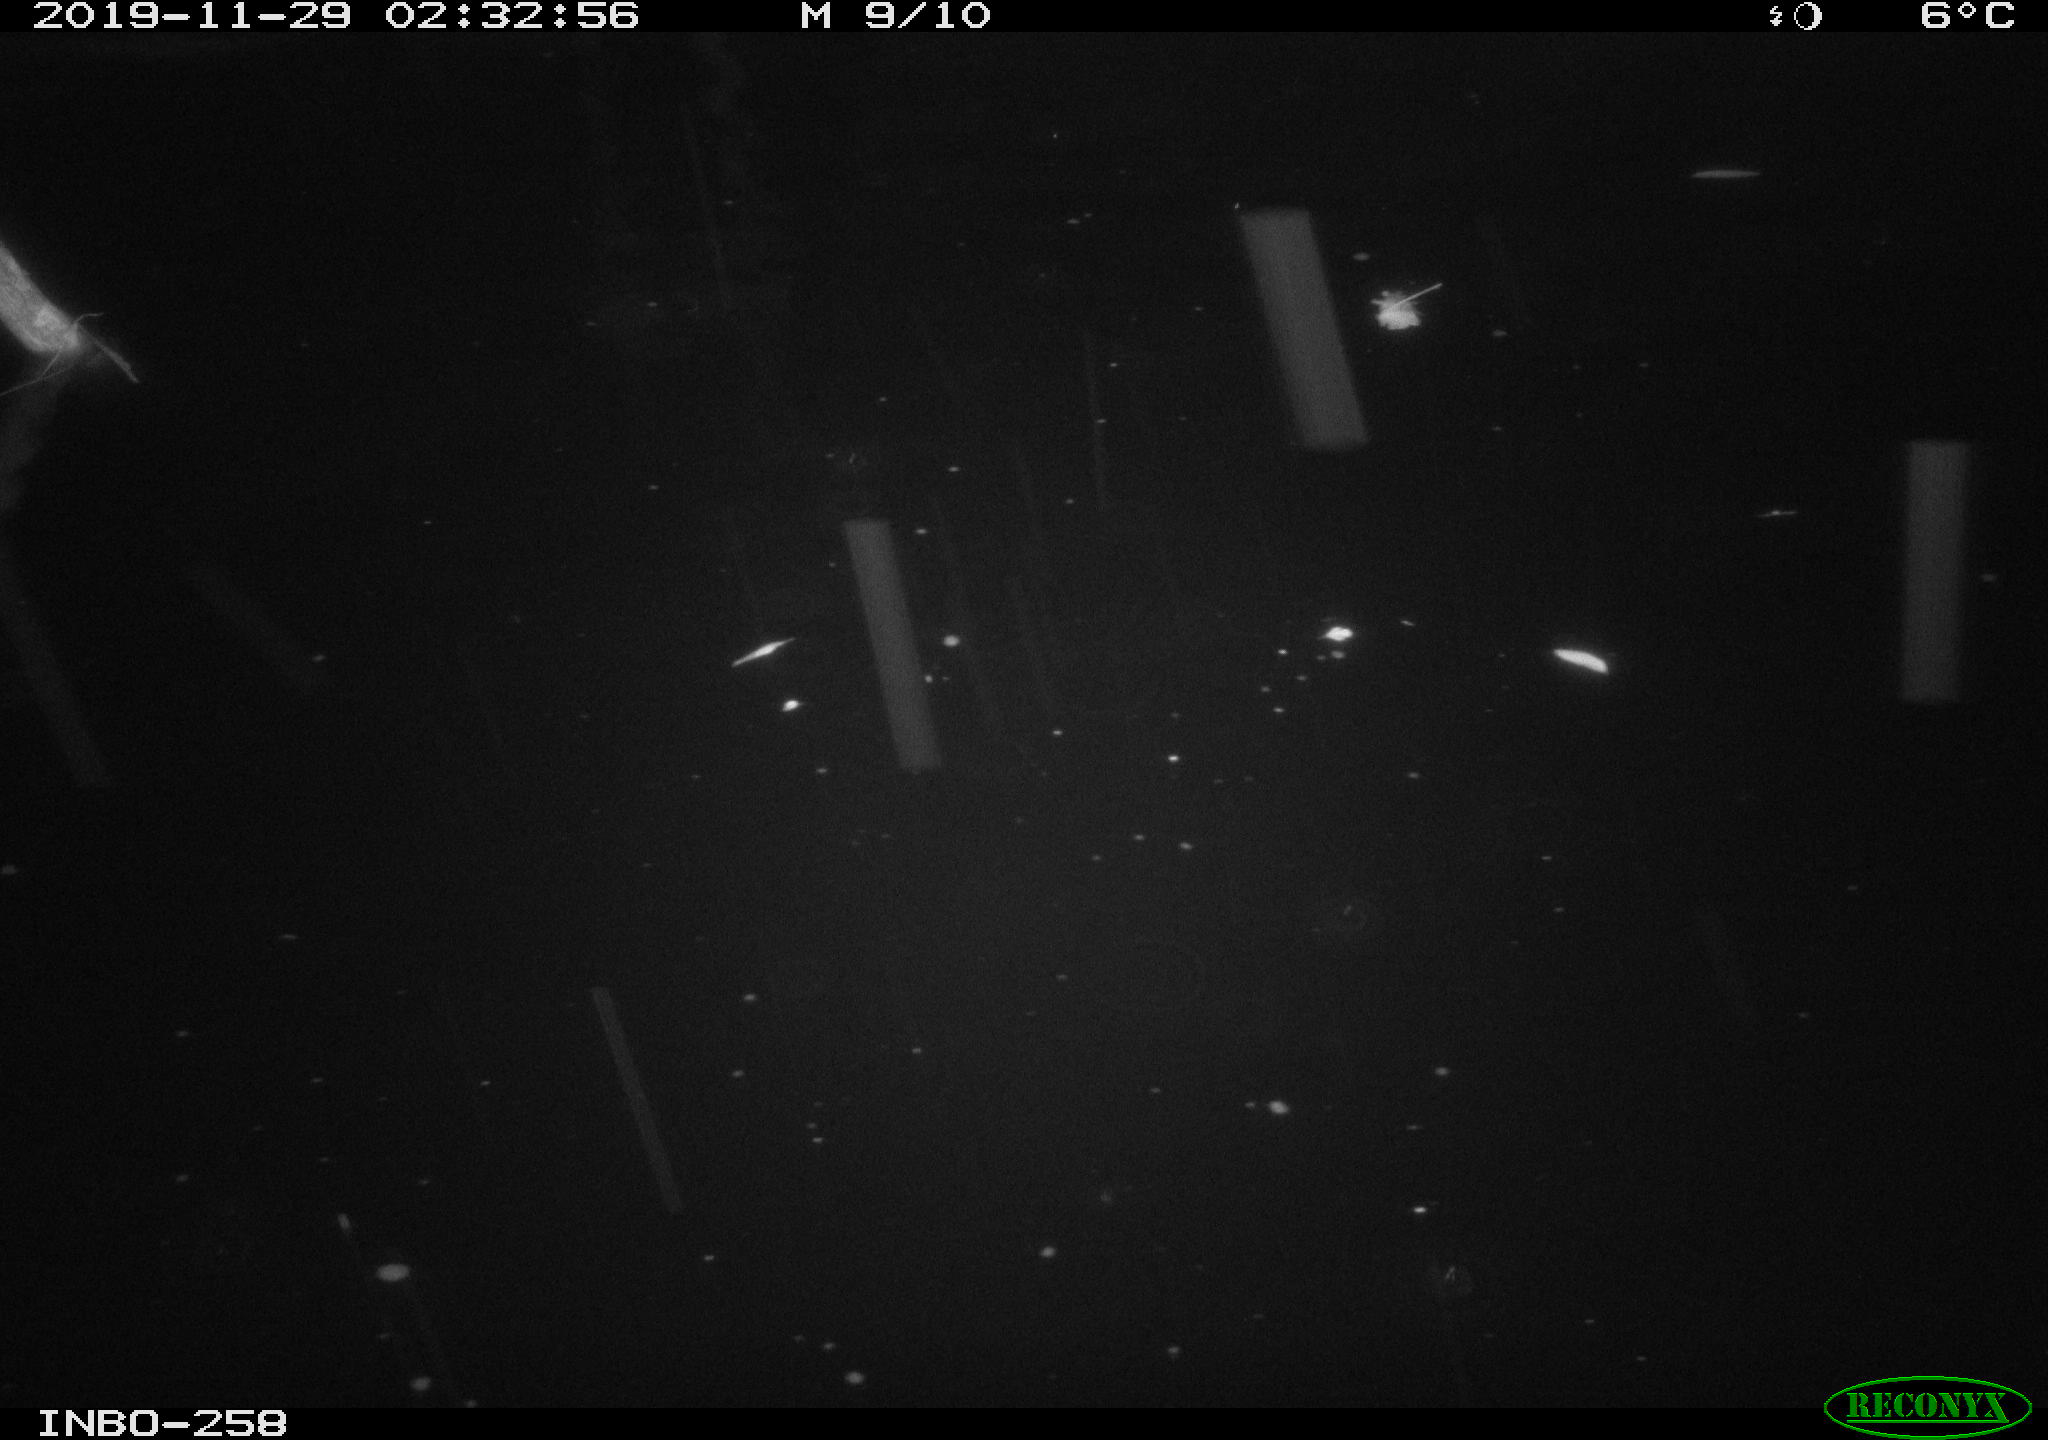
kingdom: Animalia
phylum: Chordata
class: Aves
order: Anseriformes
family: Anatidae
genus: Anas
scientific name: Anas platyrhynchos
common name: Mallard
